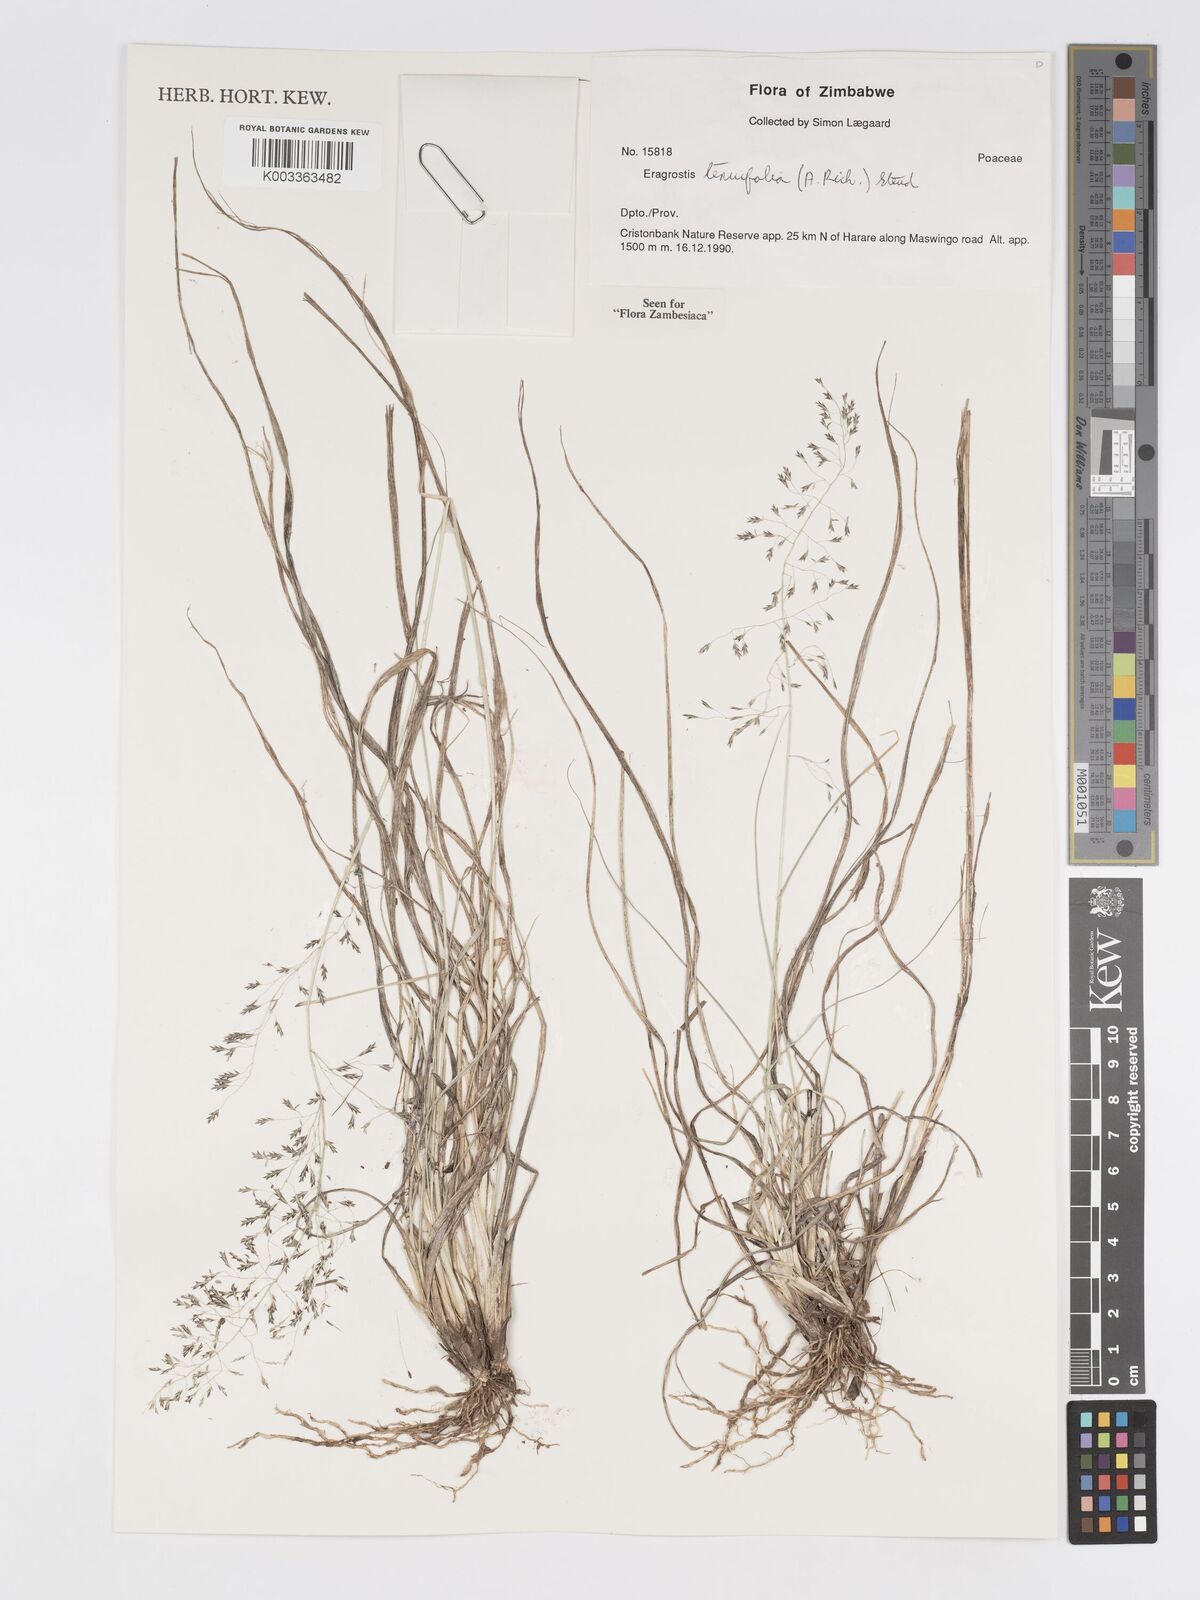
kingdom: Plantae
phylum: Tracheophyta
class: Liliopsida
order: Poales
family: Poaceae
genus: Eragrostis
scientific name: Eragrostis tenuifolia
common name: Elastic grass
